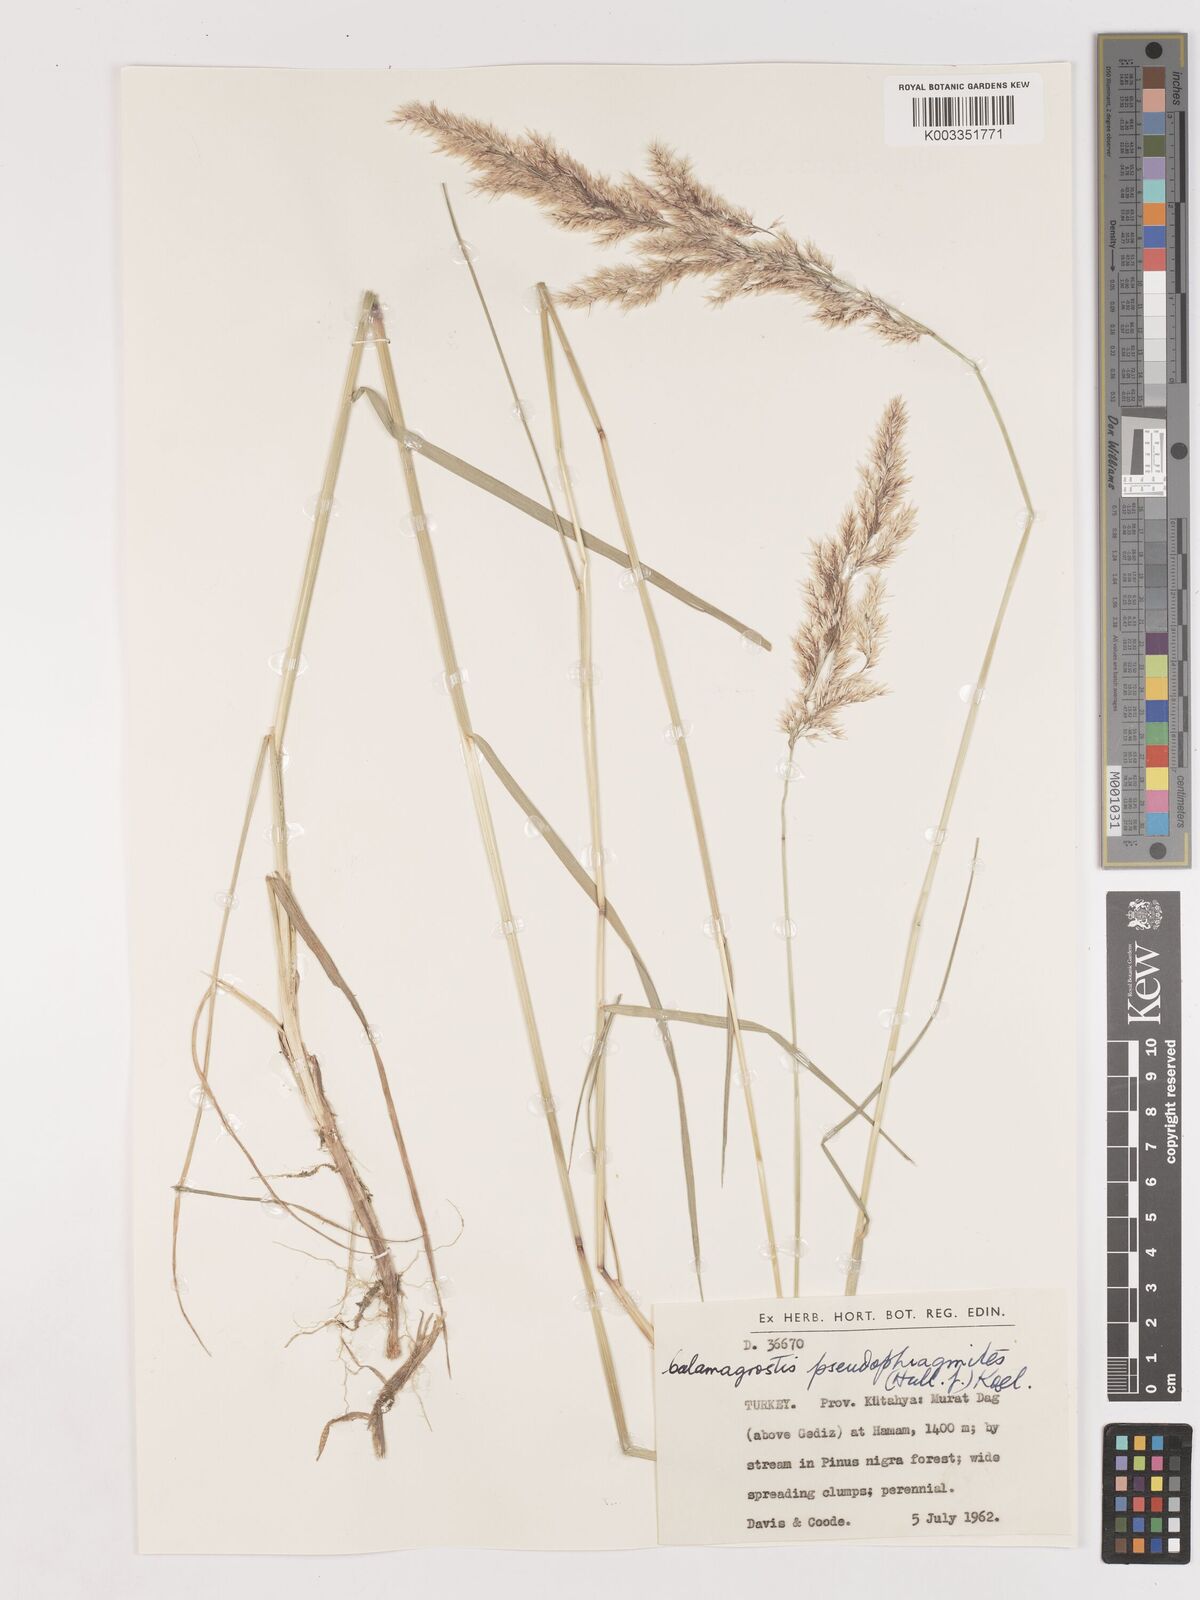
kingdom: Plantae
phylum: Tracheophyta
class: Liliopsida
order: Poales
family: Poaceae
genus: Calamagrostis
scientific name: Calamagrostis pseudophragmites
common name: Coastal small-reed
